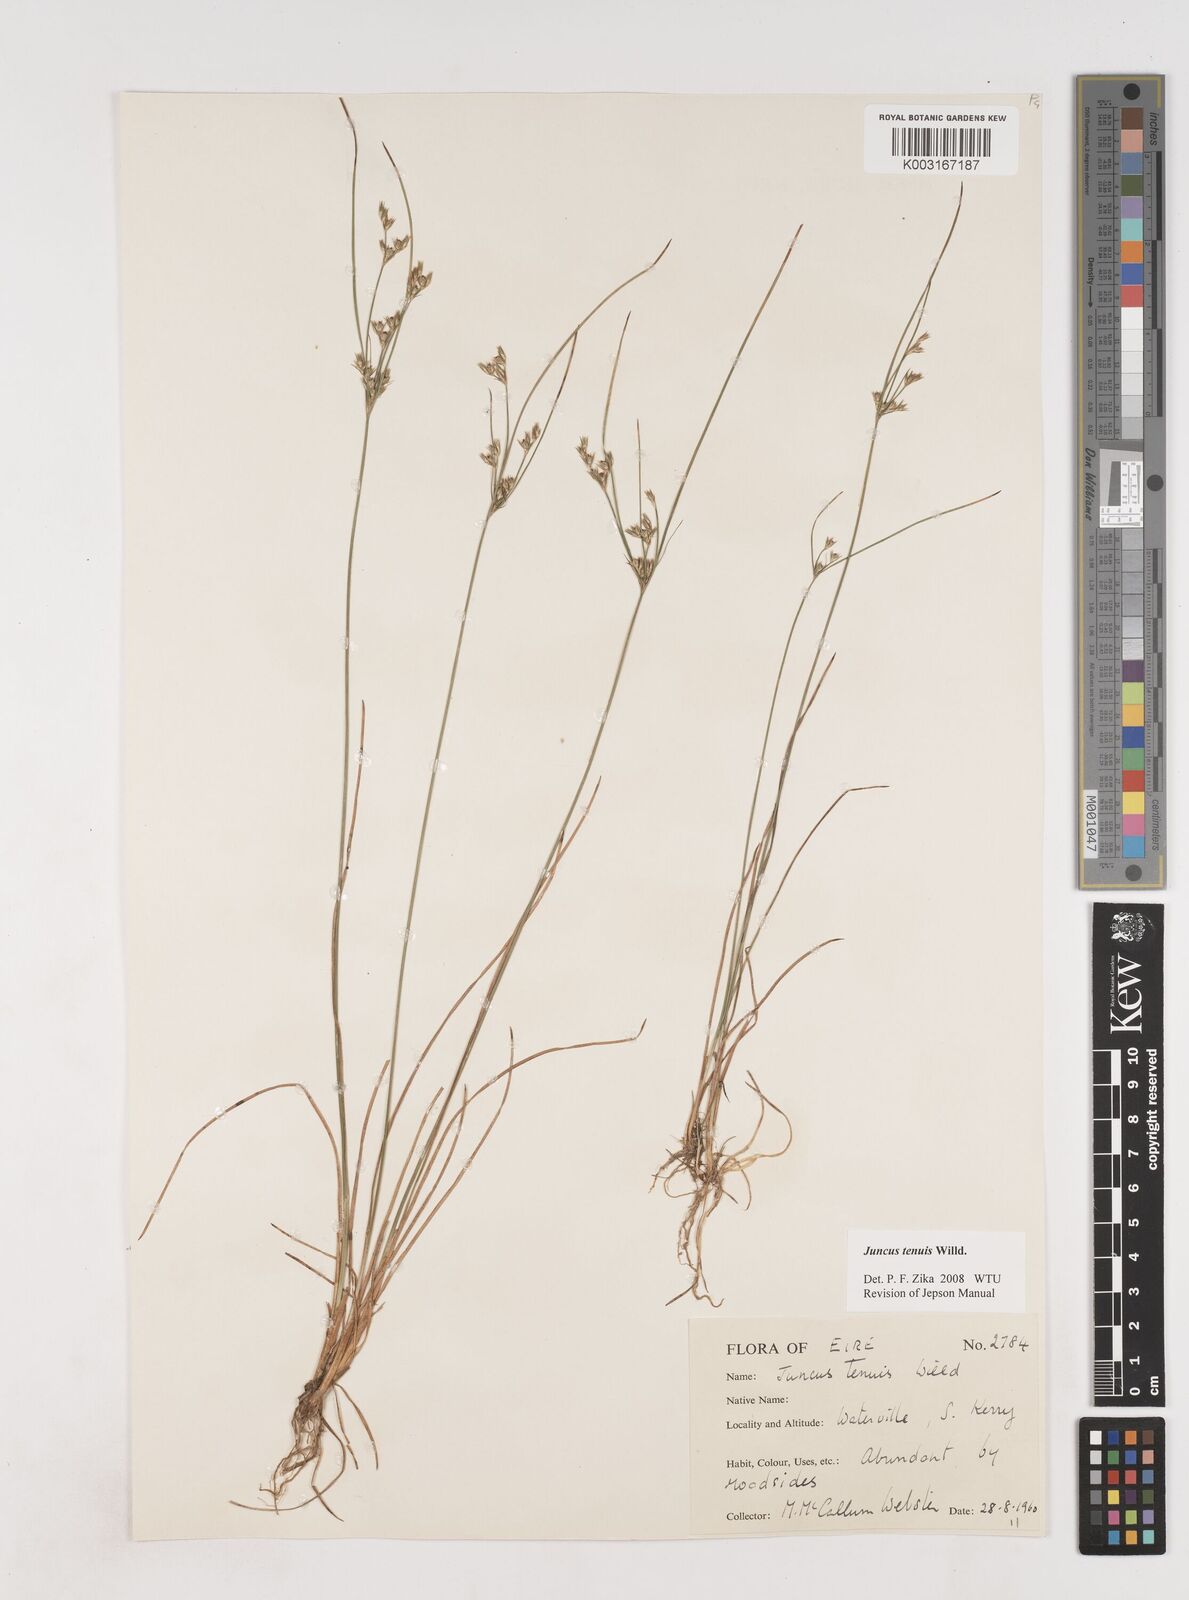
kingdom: Plantae
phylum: Tracheophyta
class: Liliopsida
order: Poales
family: Juncaceae
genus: Juncus
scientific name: Juncus tenuis
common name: Slender rush
